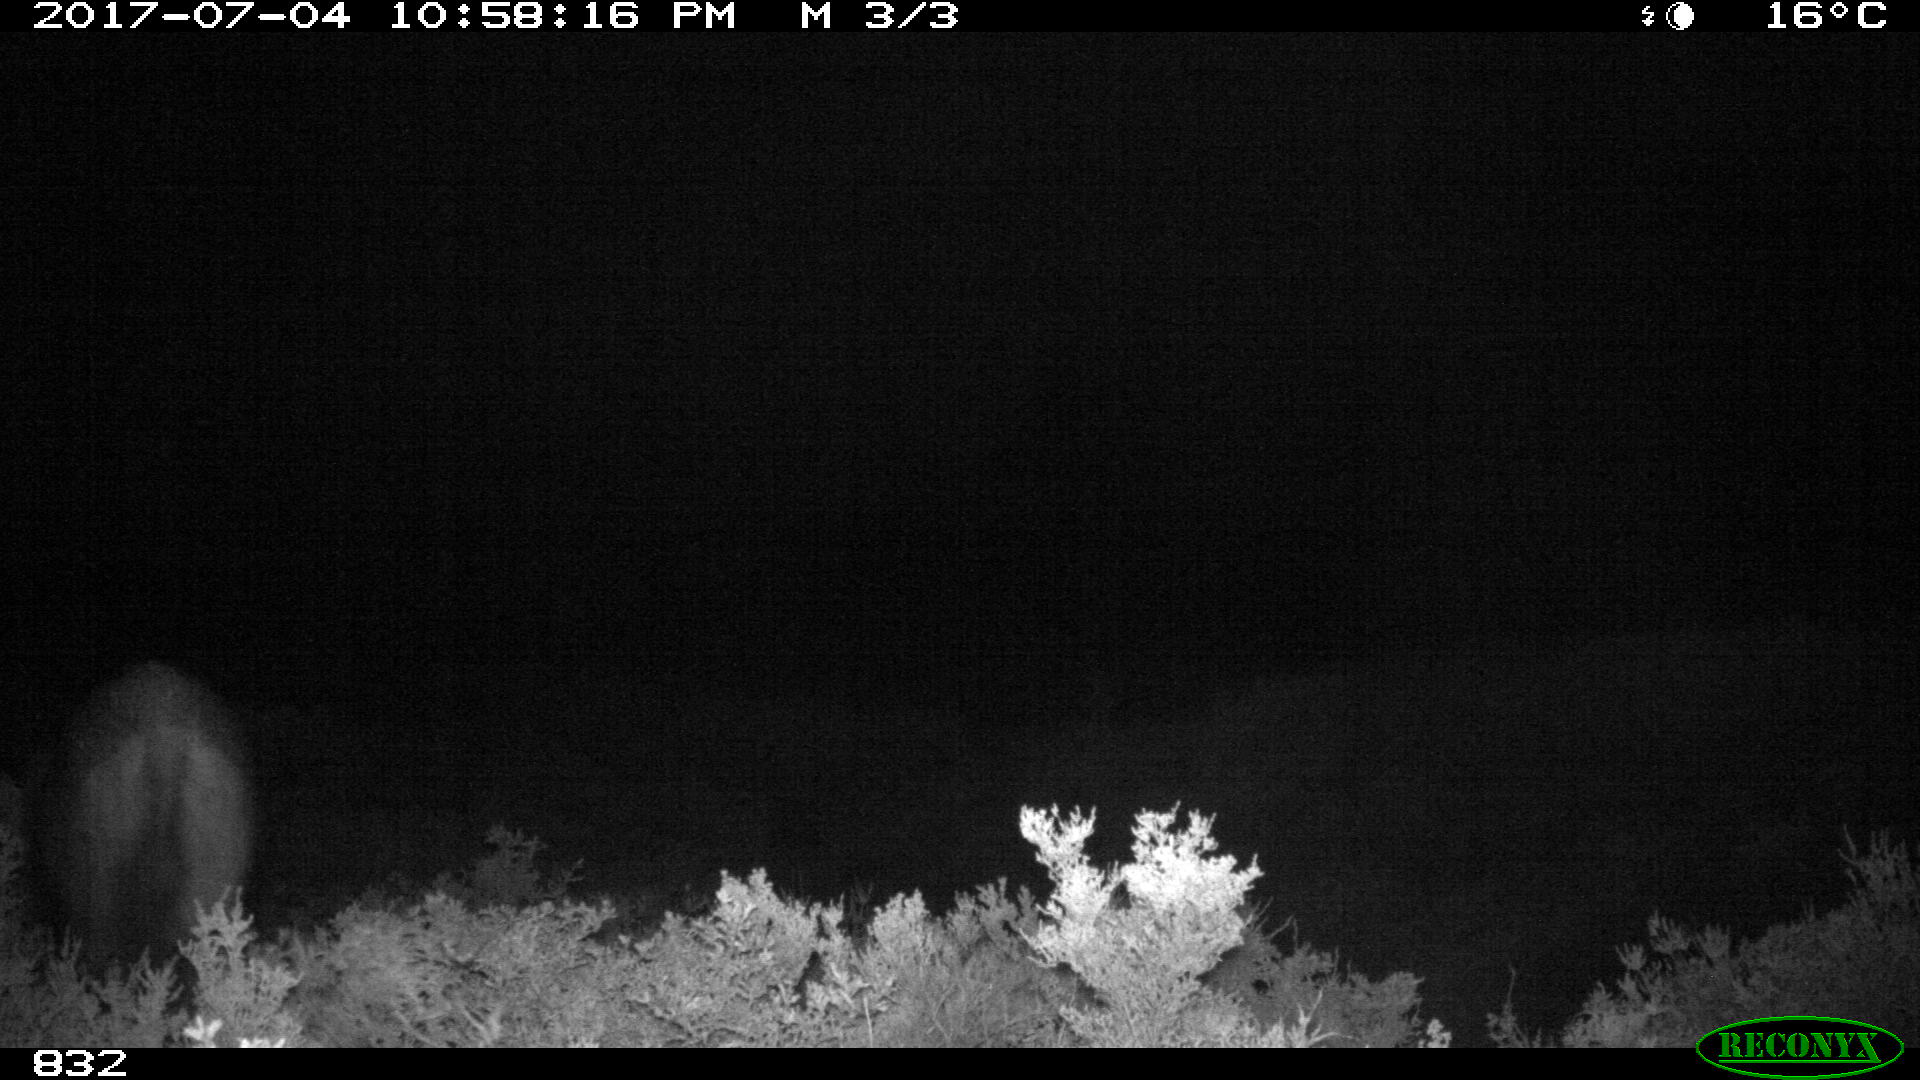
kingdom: Animalia
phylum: Chordata
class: Mammalia
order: Artiodactyla
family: Suidae
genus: Sus
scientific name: Sus scrofa
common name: Wild boar
